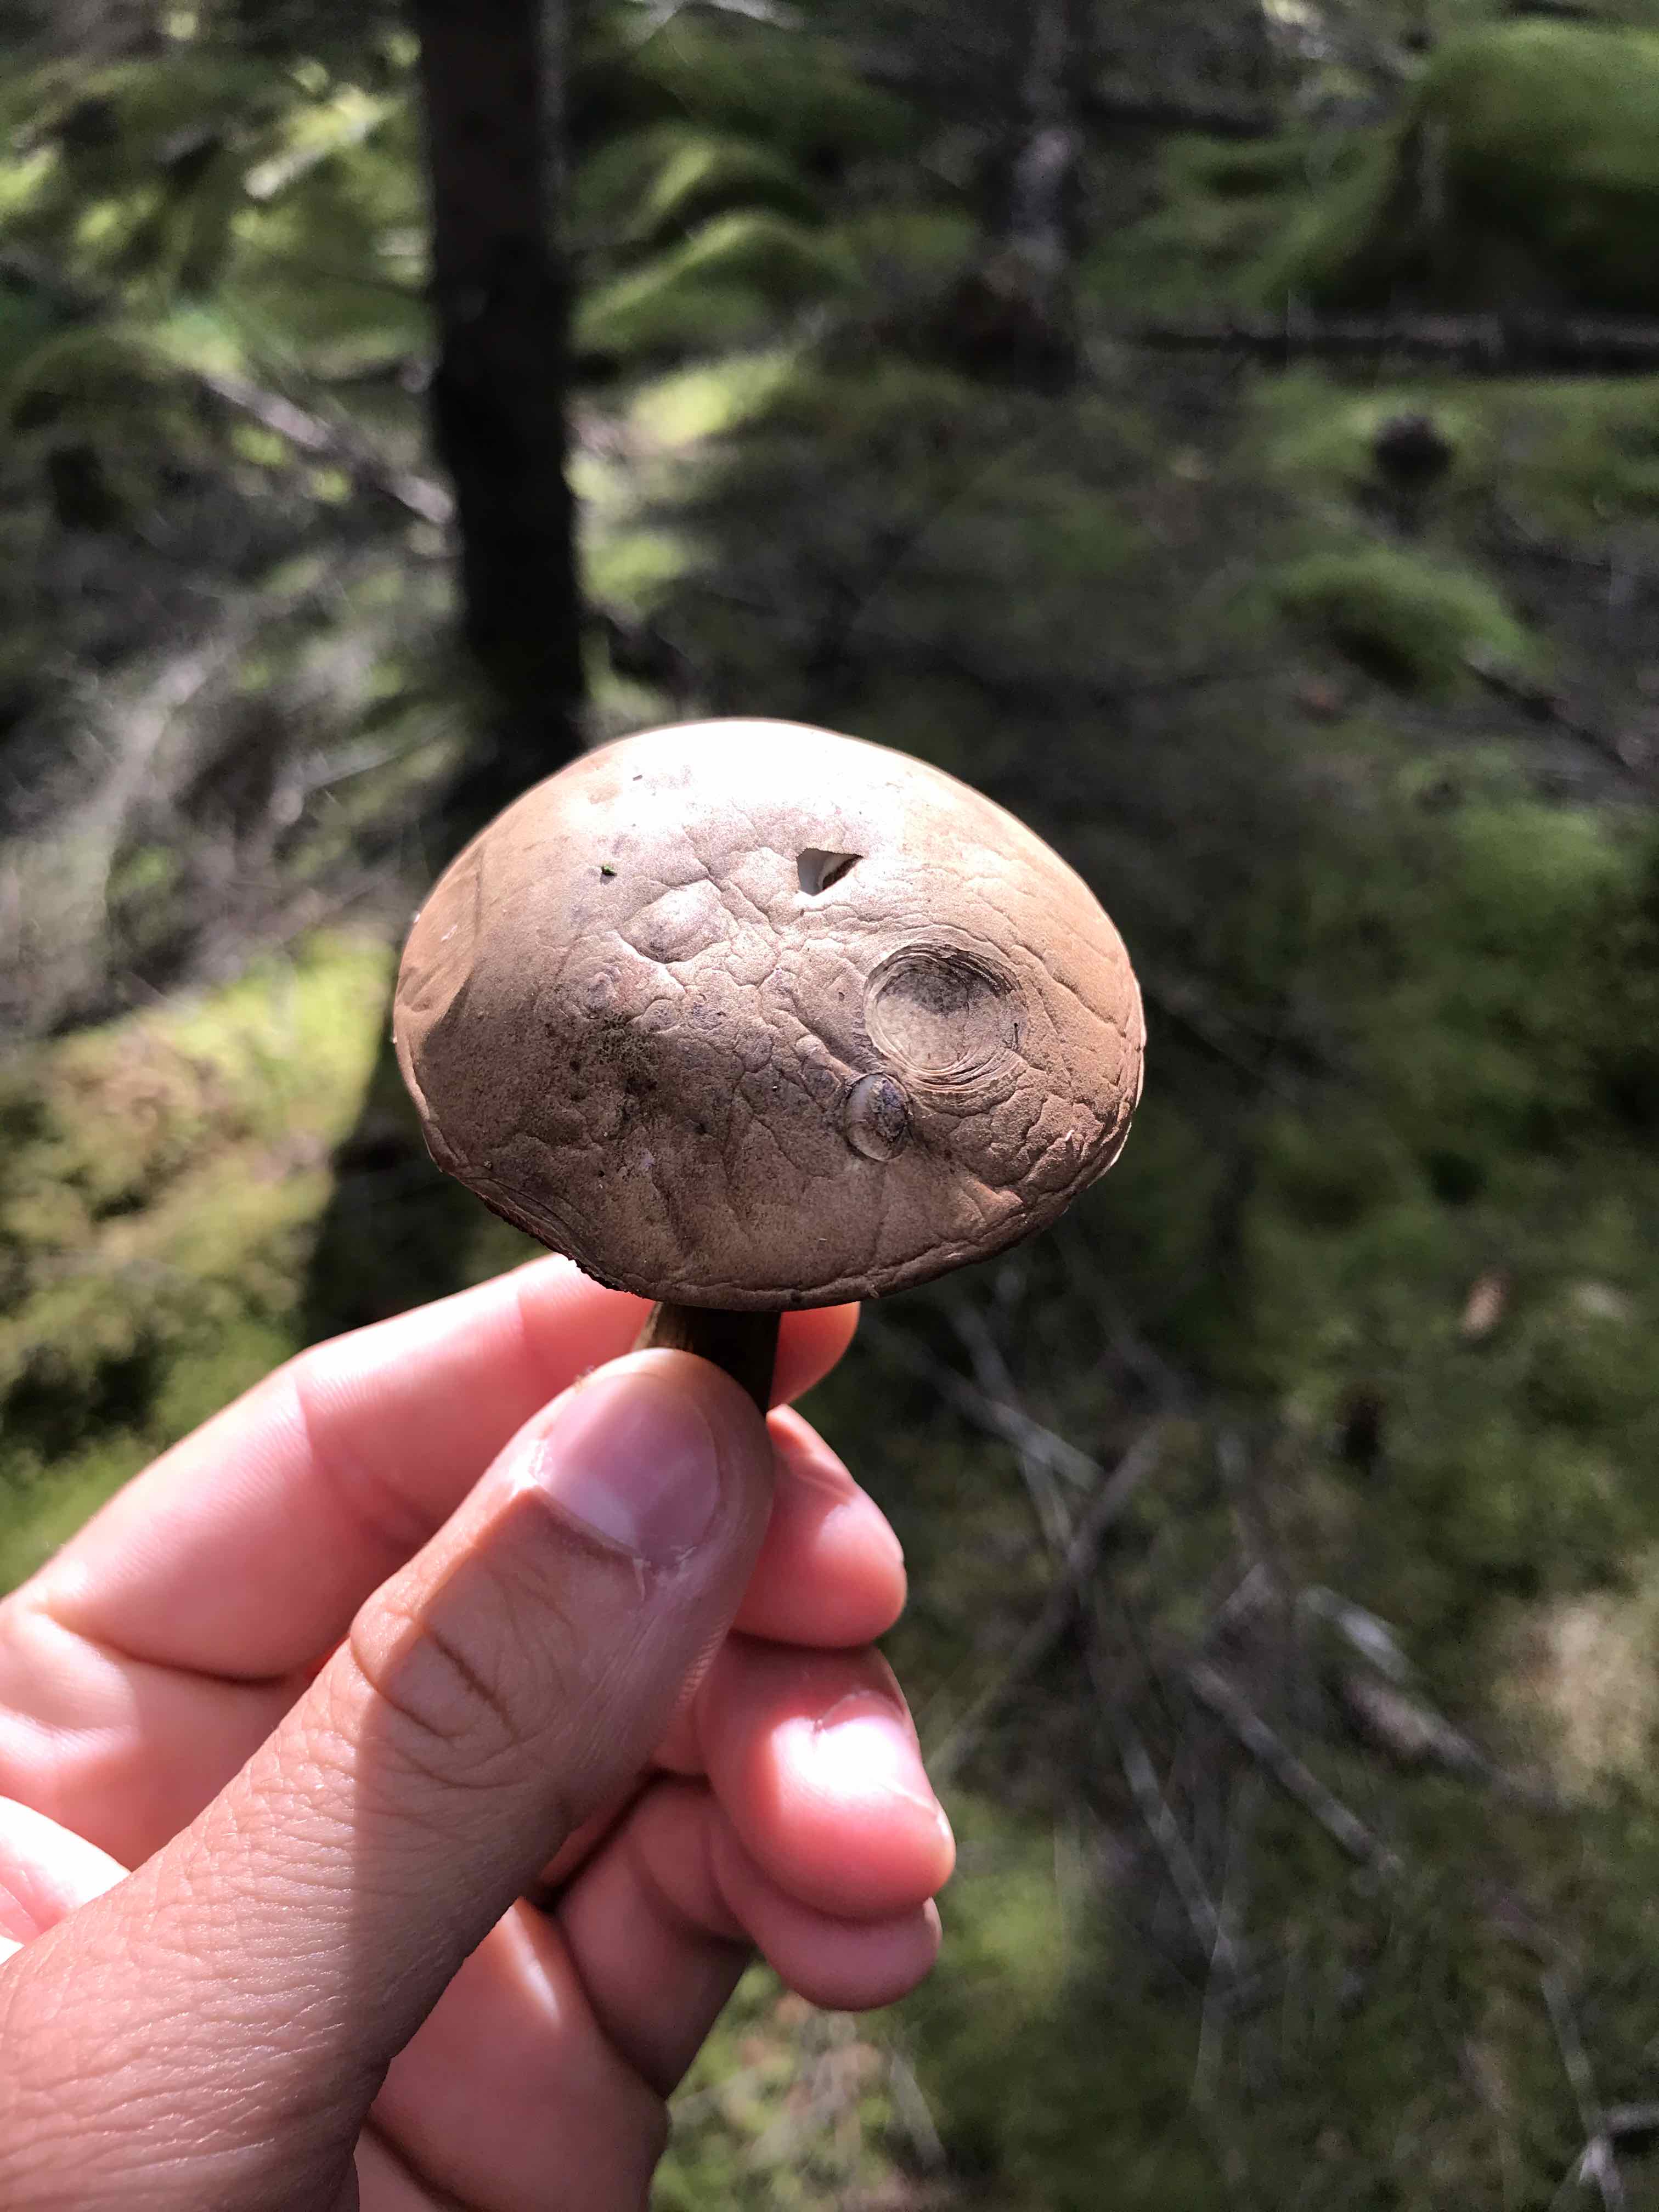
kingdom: Fungi
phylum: Basidiomycota
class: Agaricomycetes
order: Boletales
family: Boletaceae
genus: Tylopilus
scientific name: Tylopilus felleus
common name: galderørhat
